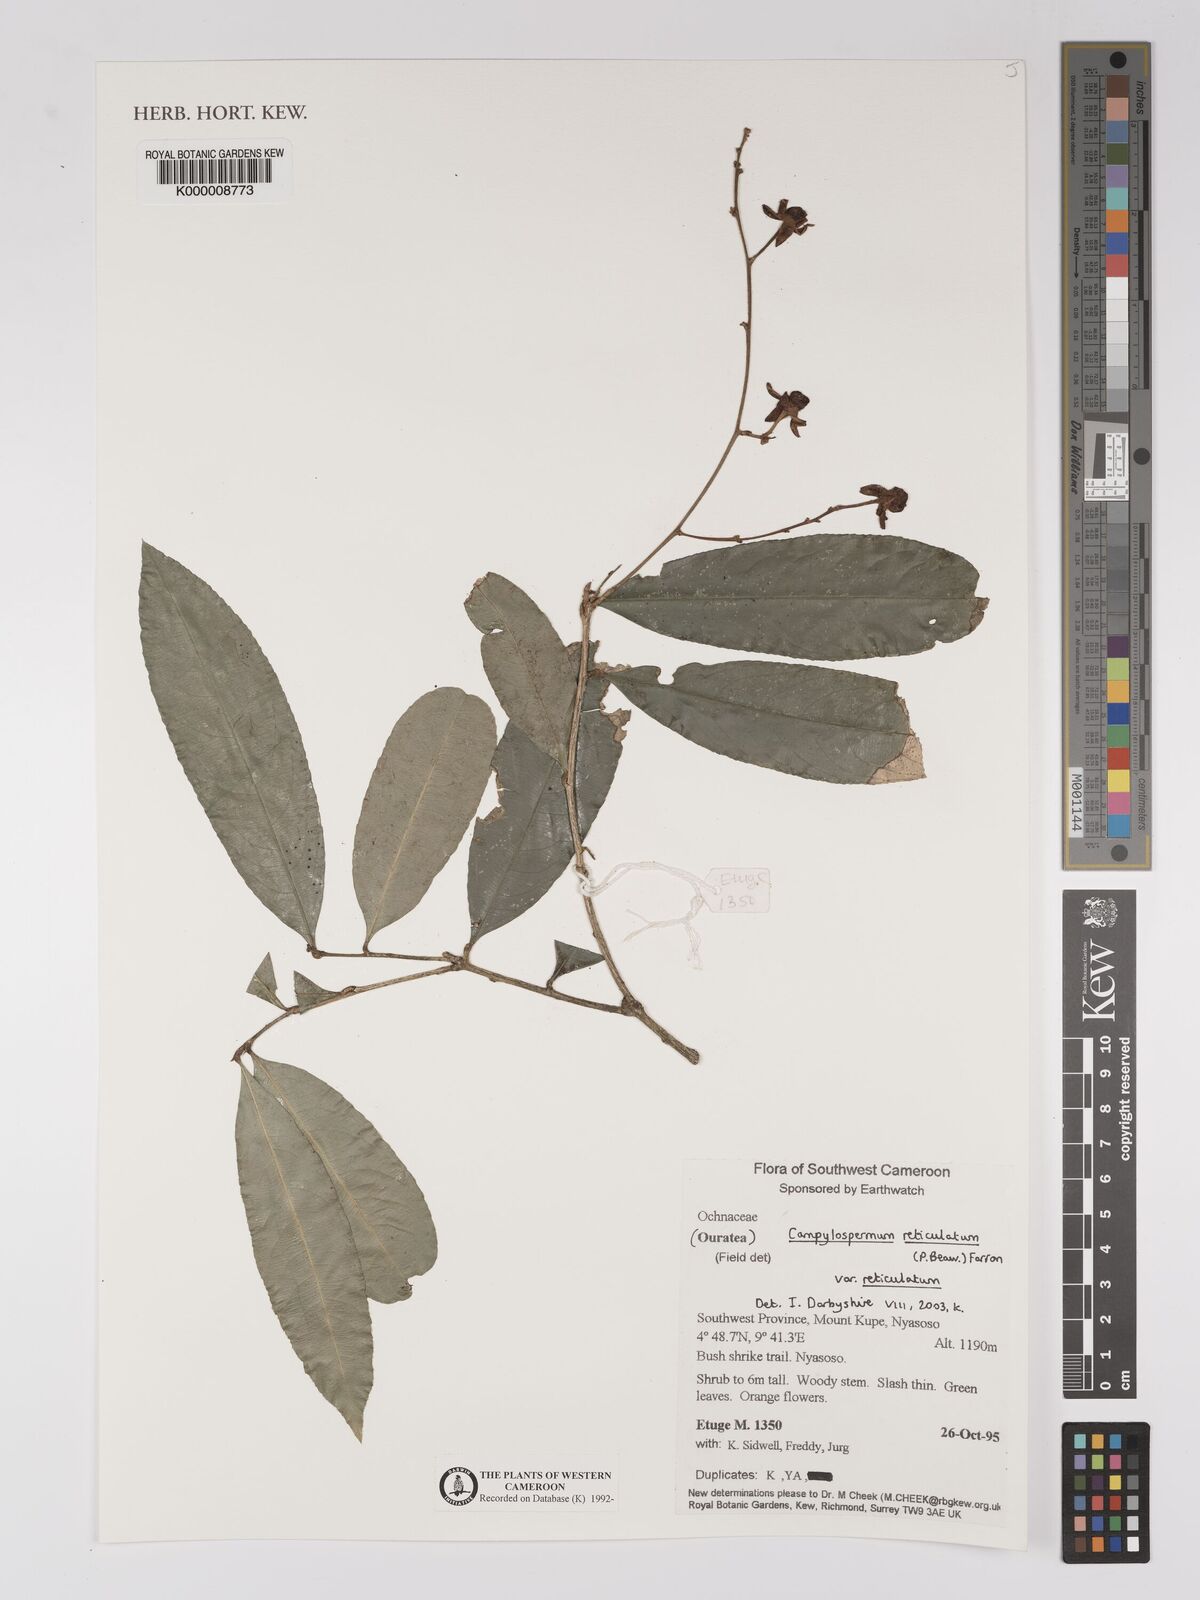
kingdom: Plantae
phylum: Tracheophyta
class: Magnoliopsida
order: Malpighiales
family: Ochnaceae
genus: Campylospermum
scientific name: Campylospermum reticulatum
